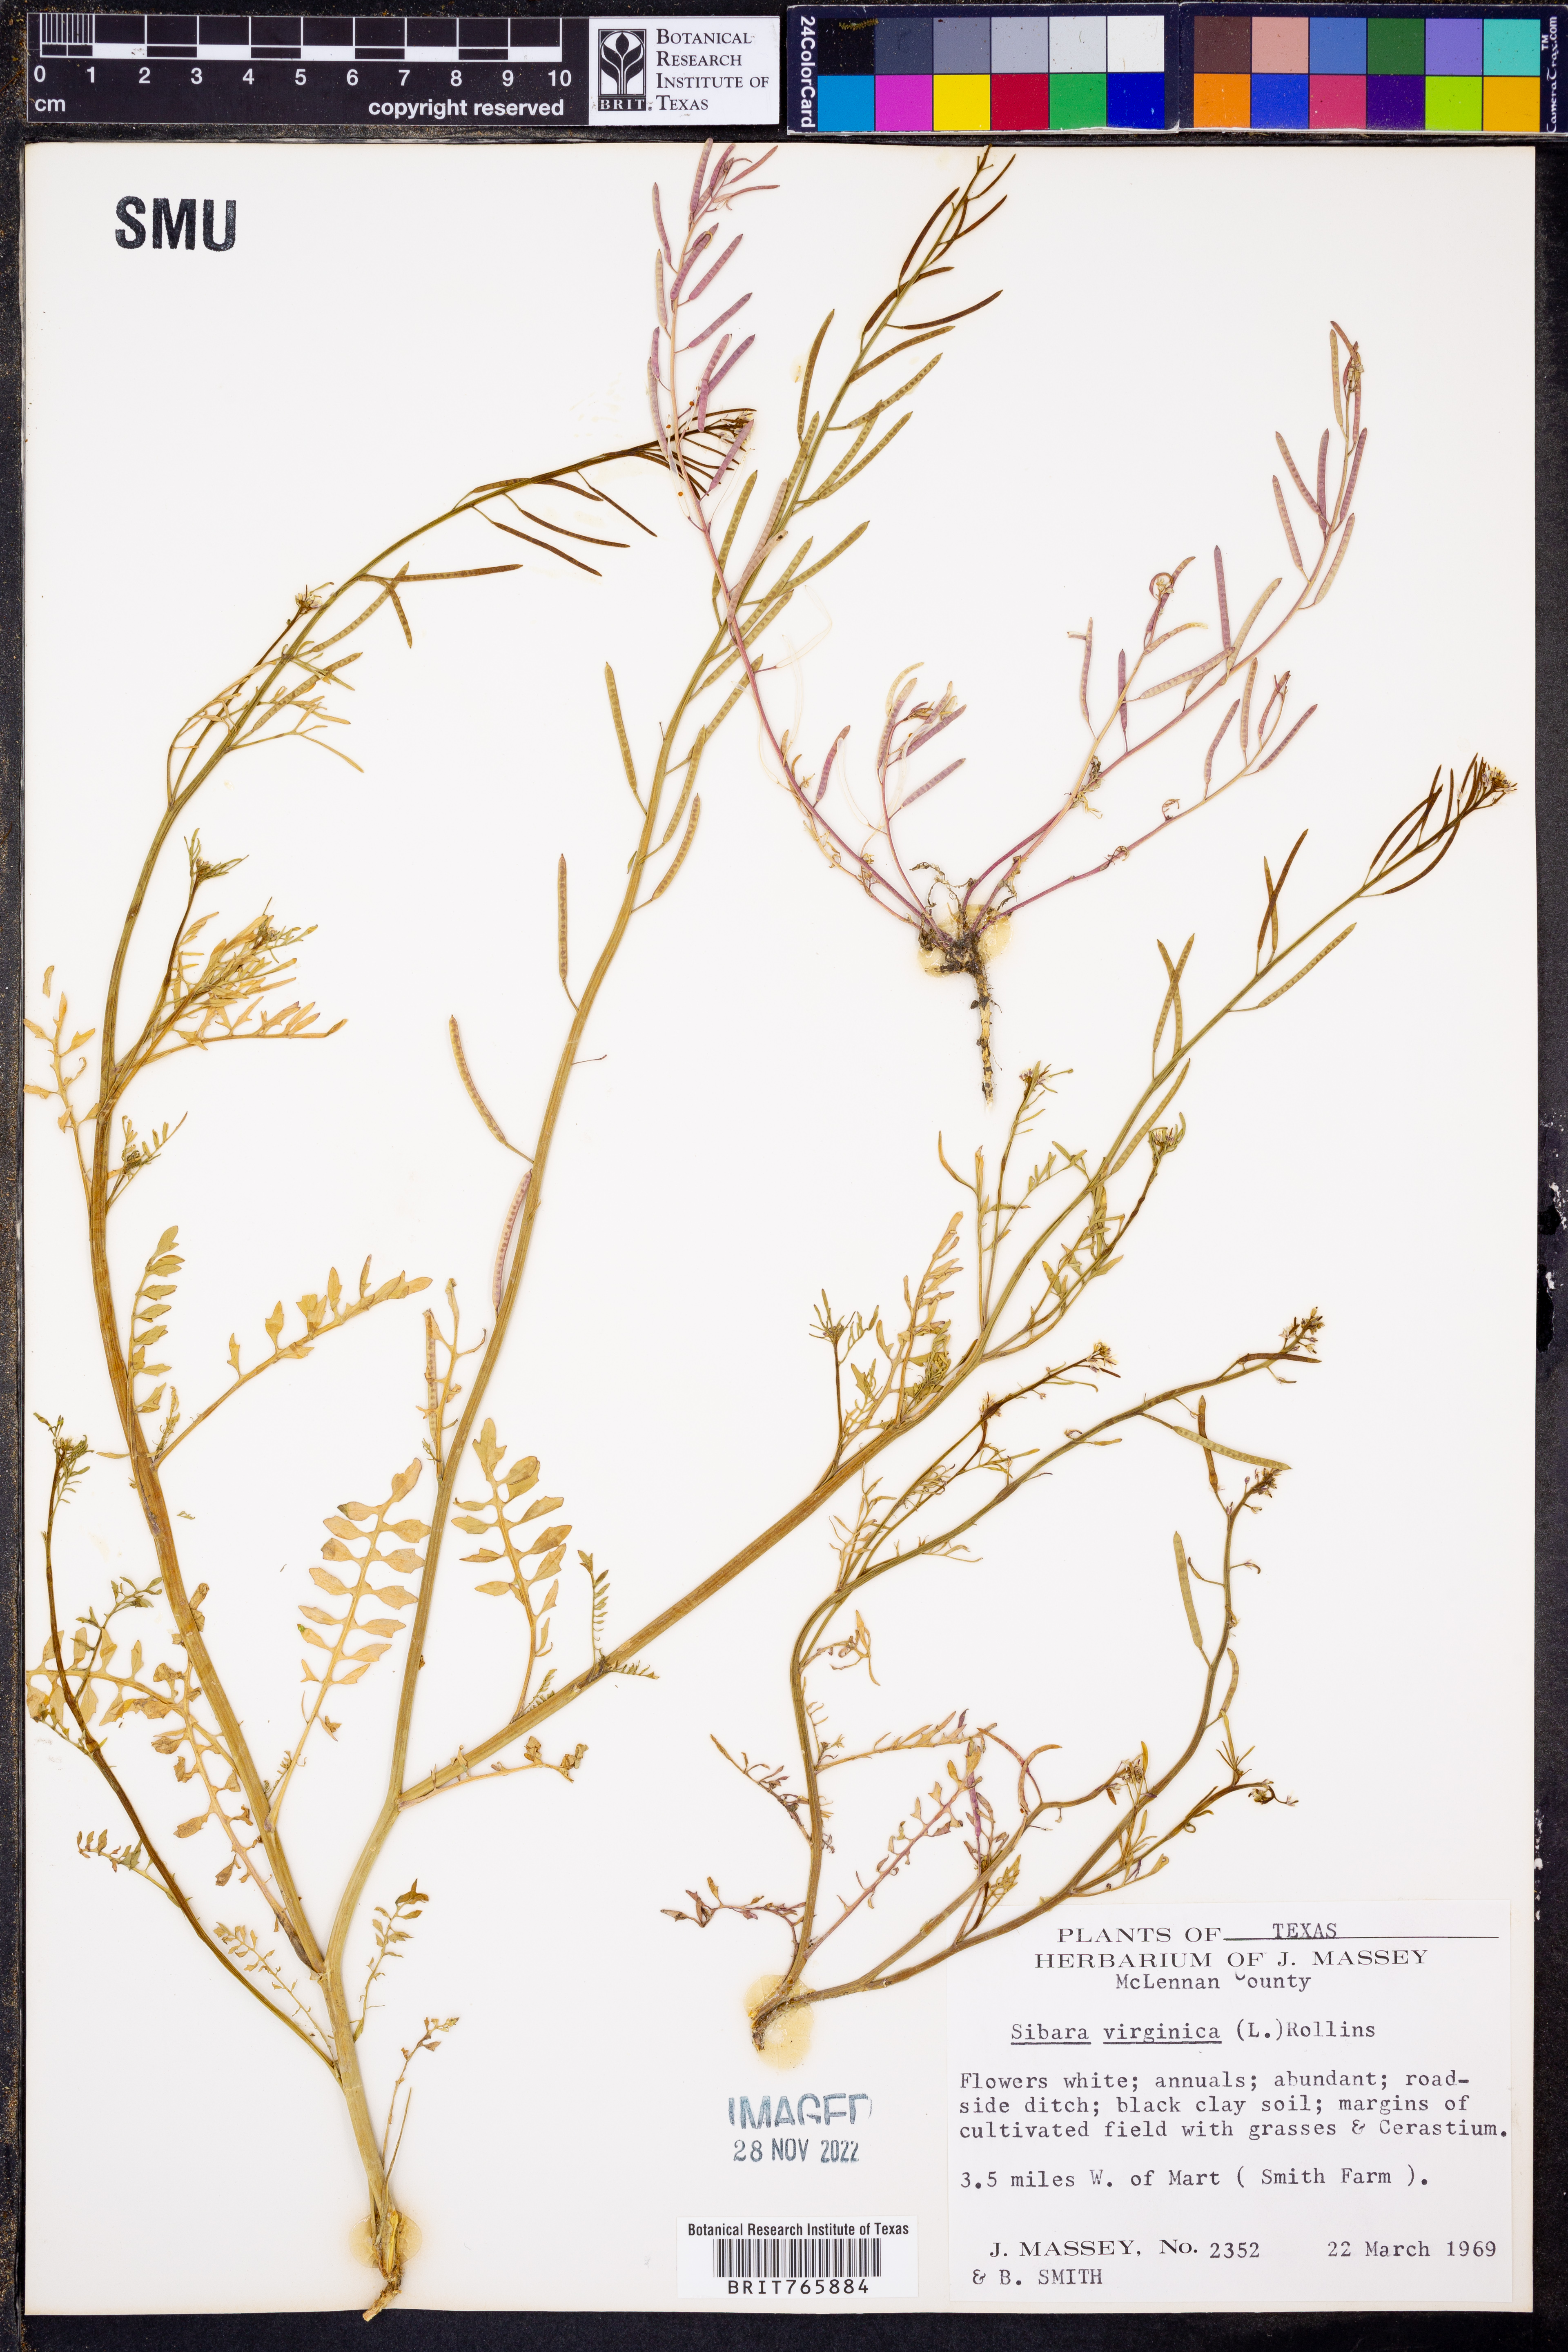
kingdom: Plantae
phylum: Tracheophyta
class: Magnoliopsida
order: Brassicales
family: Brassicaceae
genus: Planodes
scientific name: Planodes virginicum
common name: Virginia cress
